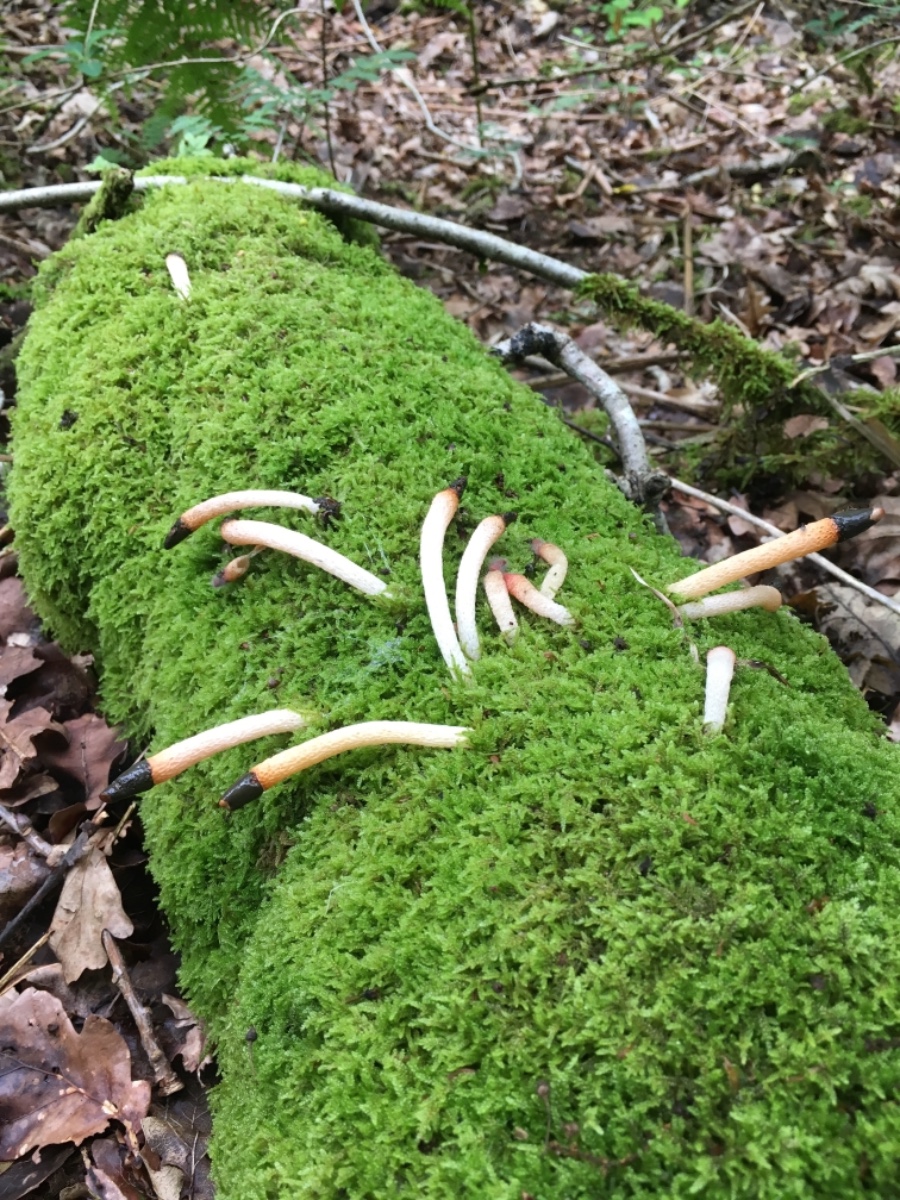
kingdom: Fungi
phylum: Basidiomycota
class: Agaricomycetes
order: Phallales
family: Phallaceae
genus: Mutinus
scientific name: Mutinus caninus
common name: hunde-stinksvamp
